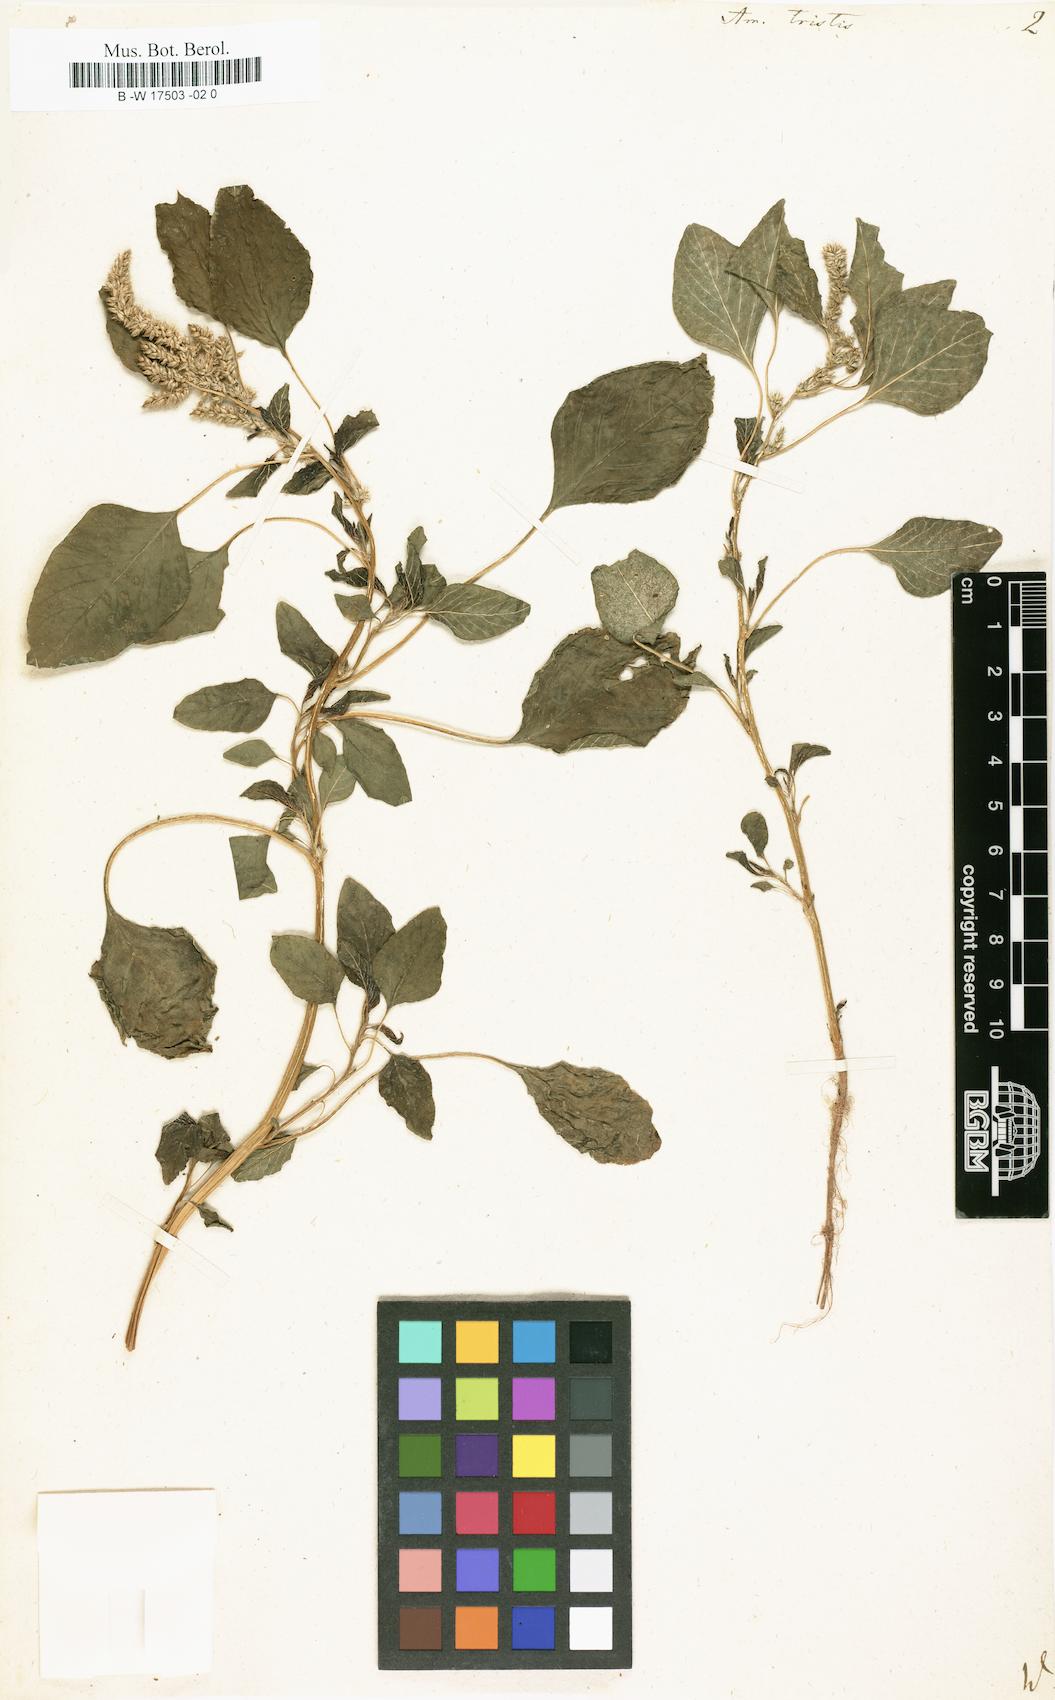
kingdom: Plantae
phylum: Tracheophyta
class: Magnoliopsida
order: Caryophyllales
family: Amaranthaceae
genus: Amaranthus
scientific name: Amaranthus tricolor
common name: Joseph's-coat
